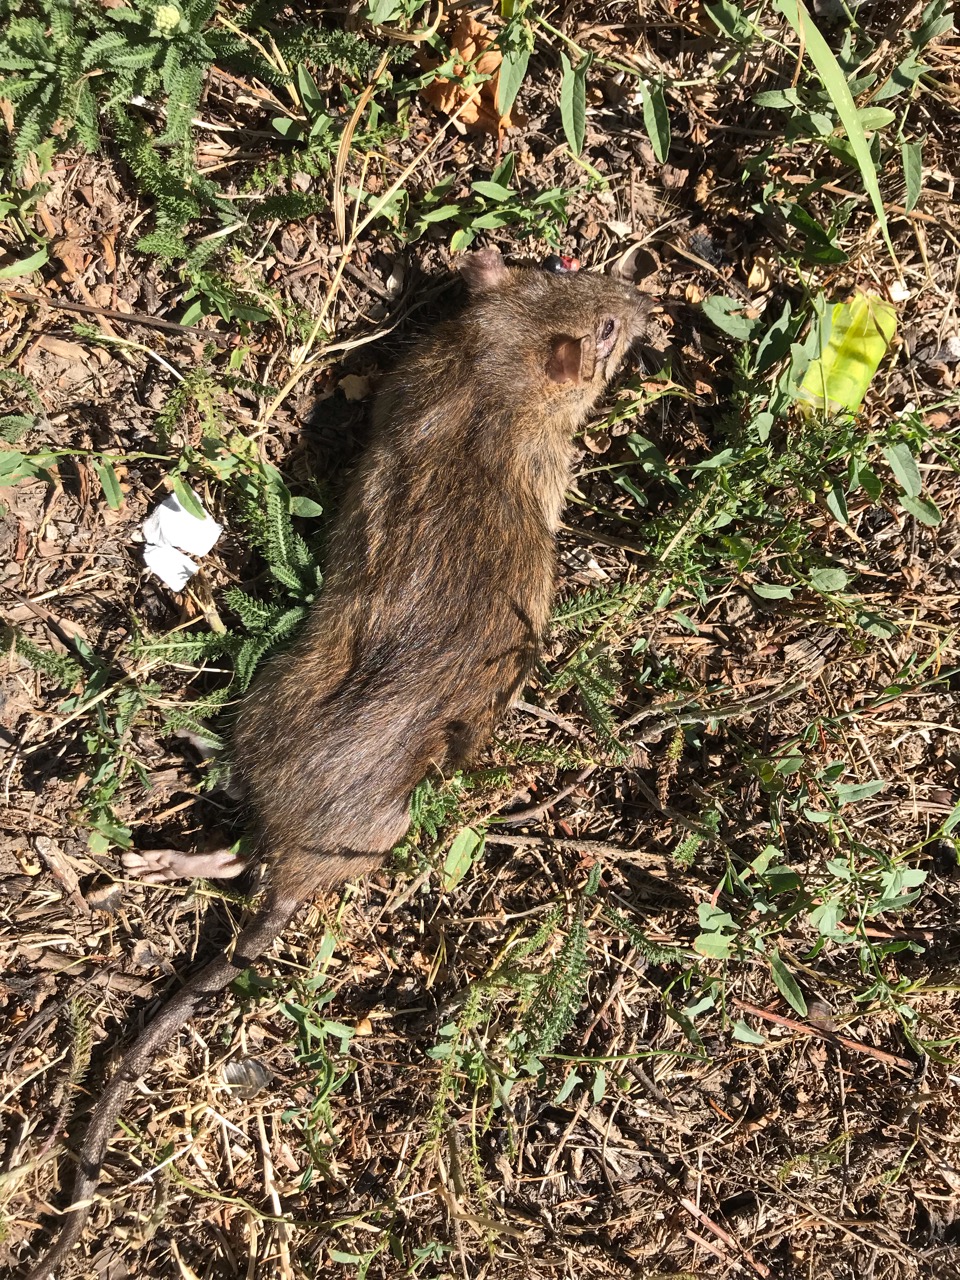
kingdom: Animalia
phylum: Chordata
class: Mammalia
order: Rodentia
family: Muridae
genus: Rattus
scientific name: Rattus norvegicus
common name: Brown rat
